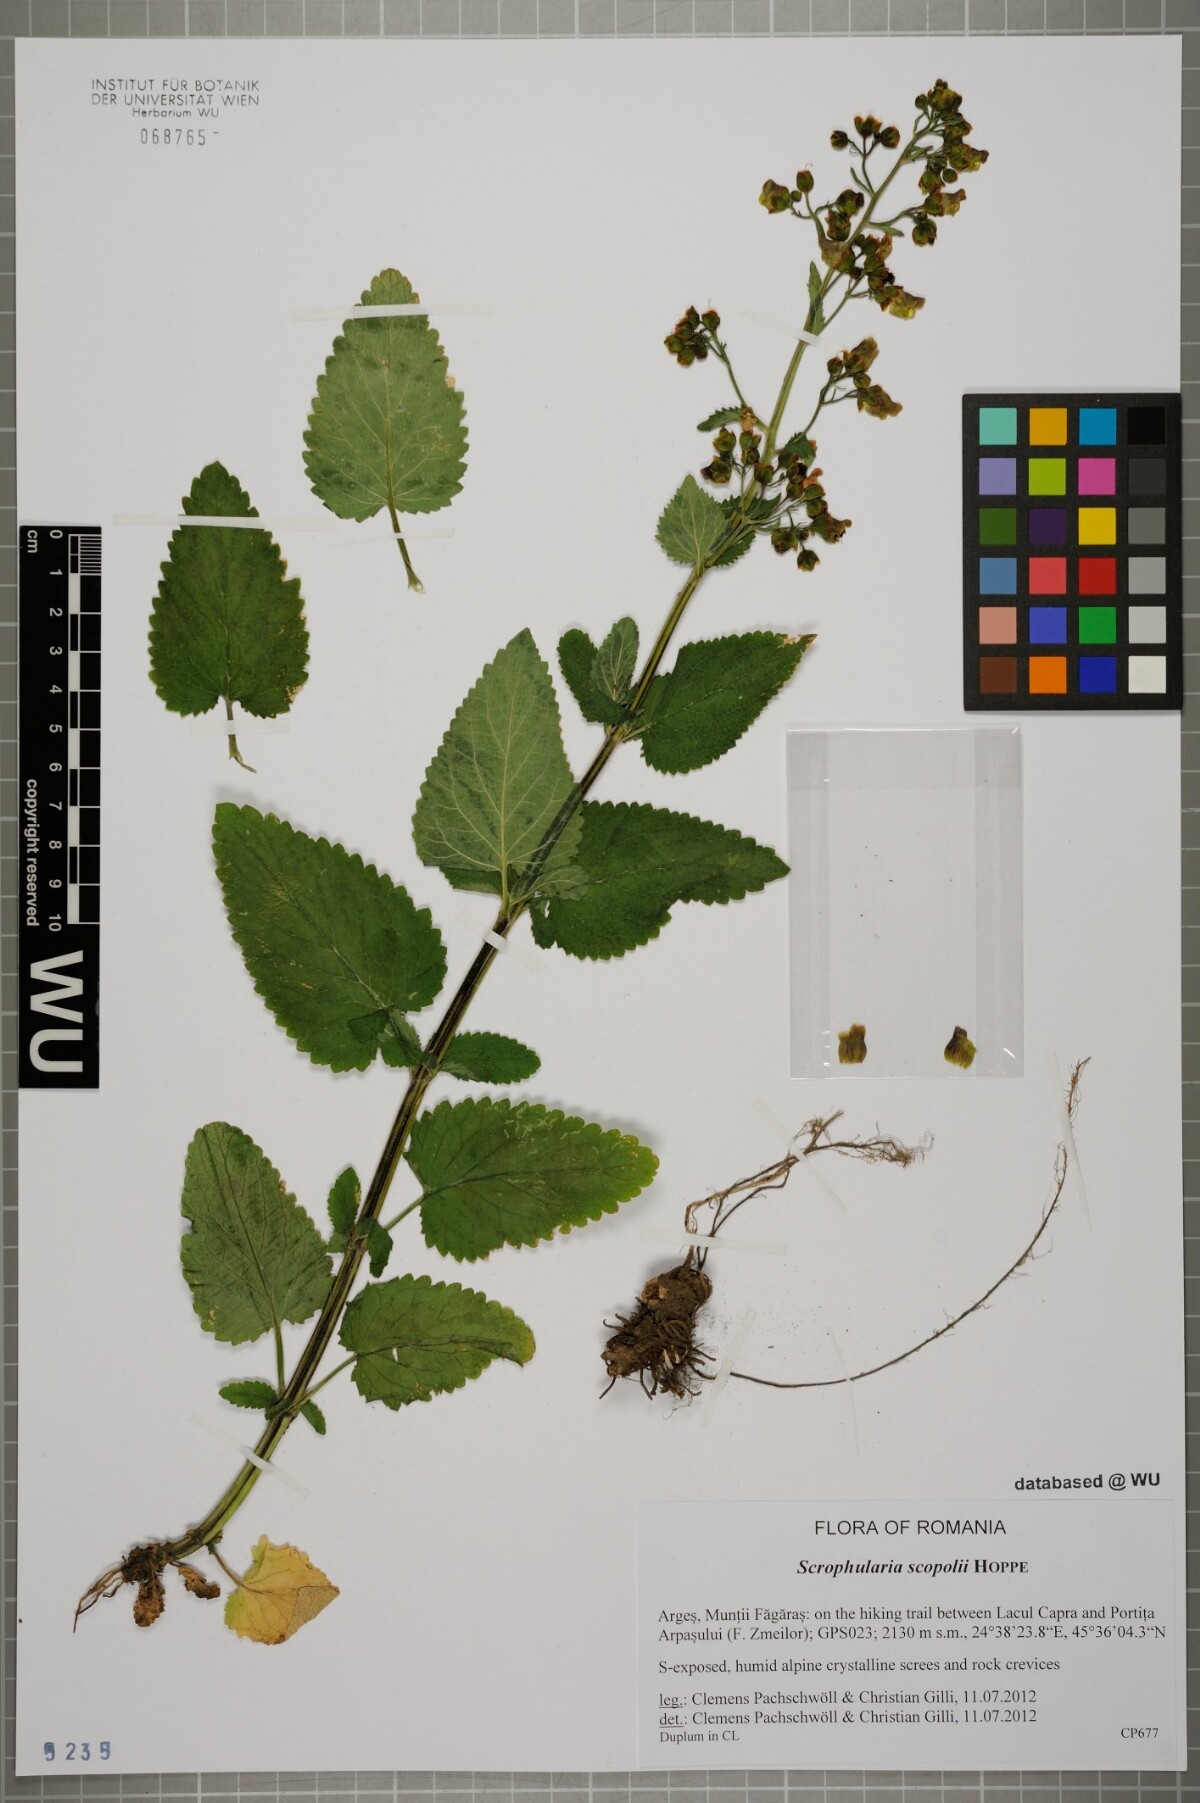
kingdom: Plantae
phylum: Tracheophyta
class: Magnoliopsida
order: Lamiales
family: Scrophulariaceae
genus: Scrophularia
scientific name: Scrophularia scopolii
